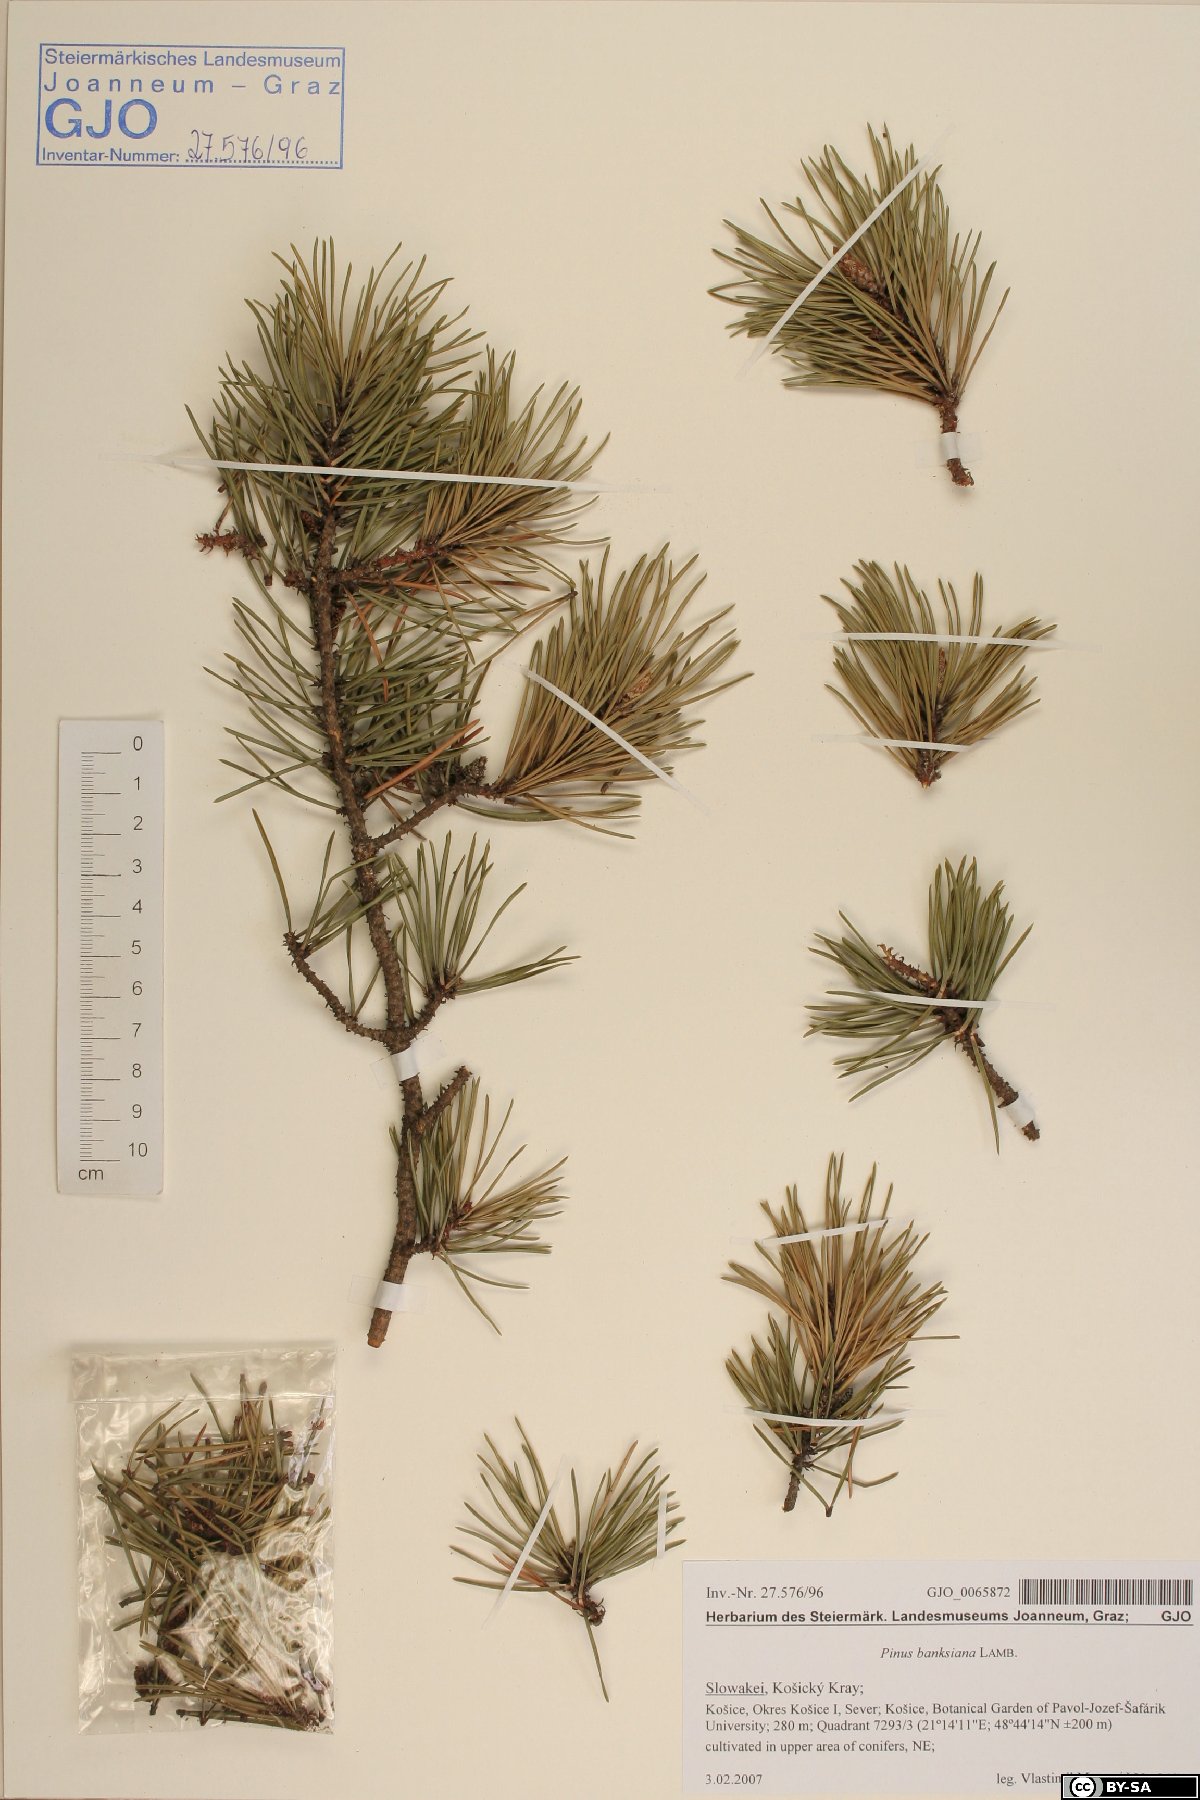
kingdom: Plantae
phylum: Tracheophyta
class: Pinopsida
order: Pinales
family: Pinaceae
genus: Pinus
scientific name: Pinus banksiana
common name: Jack pine
